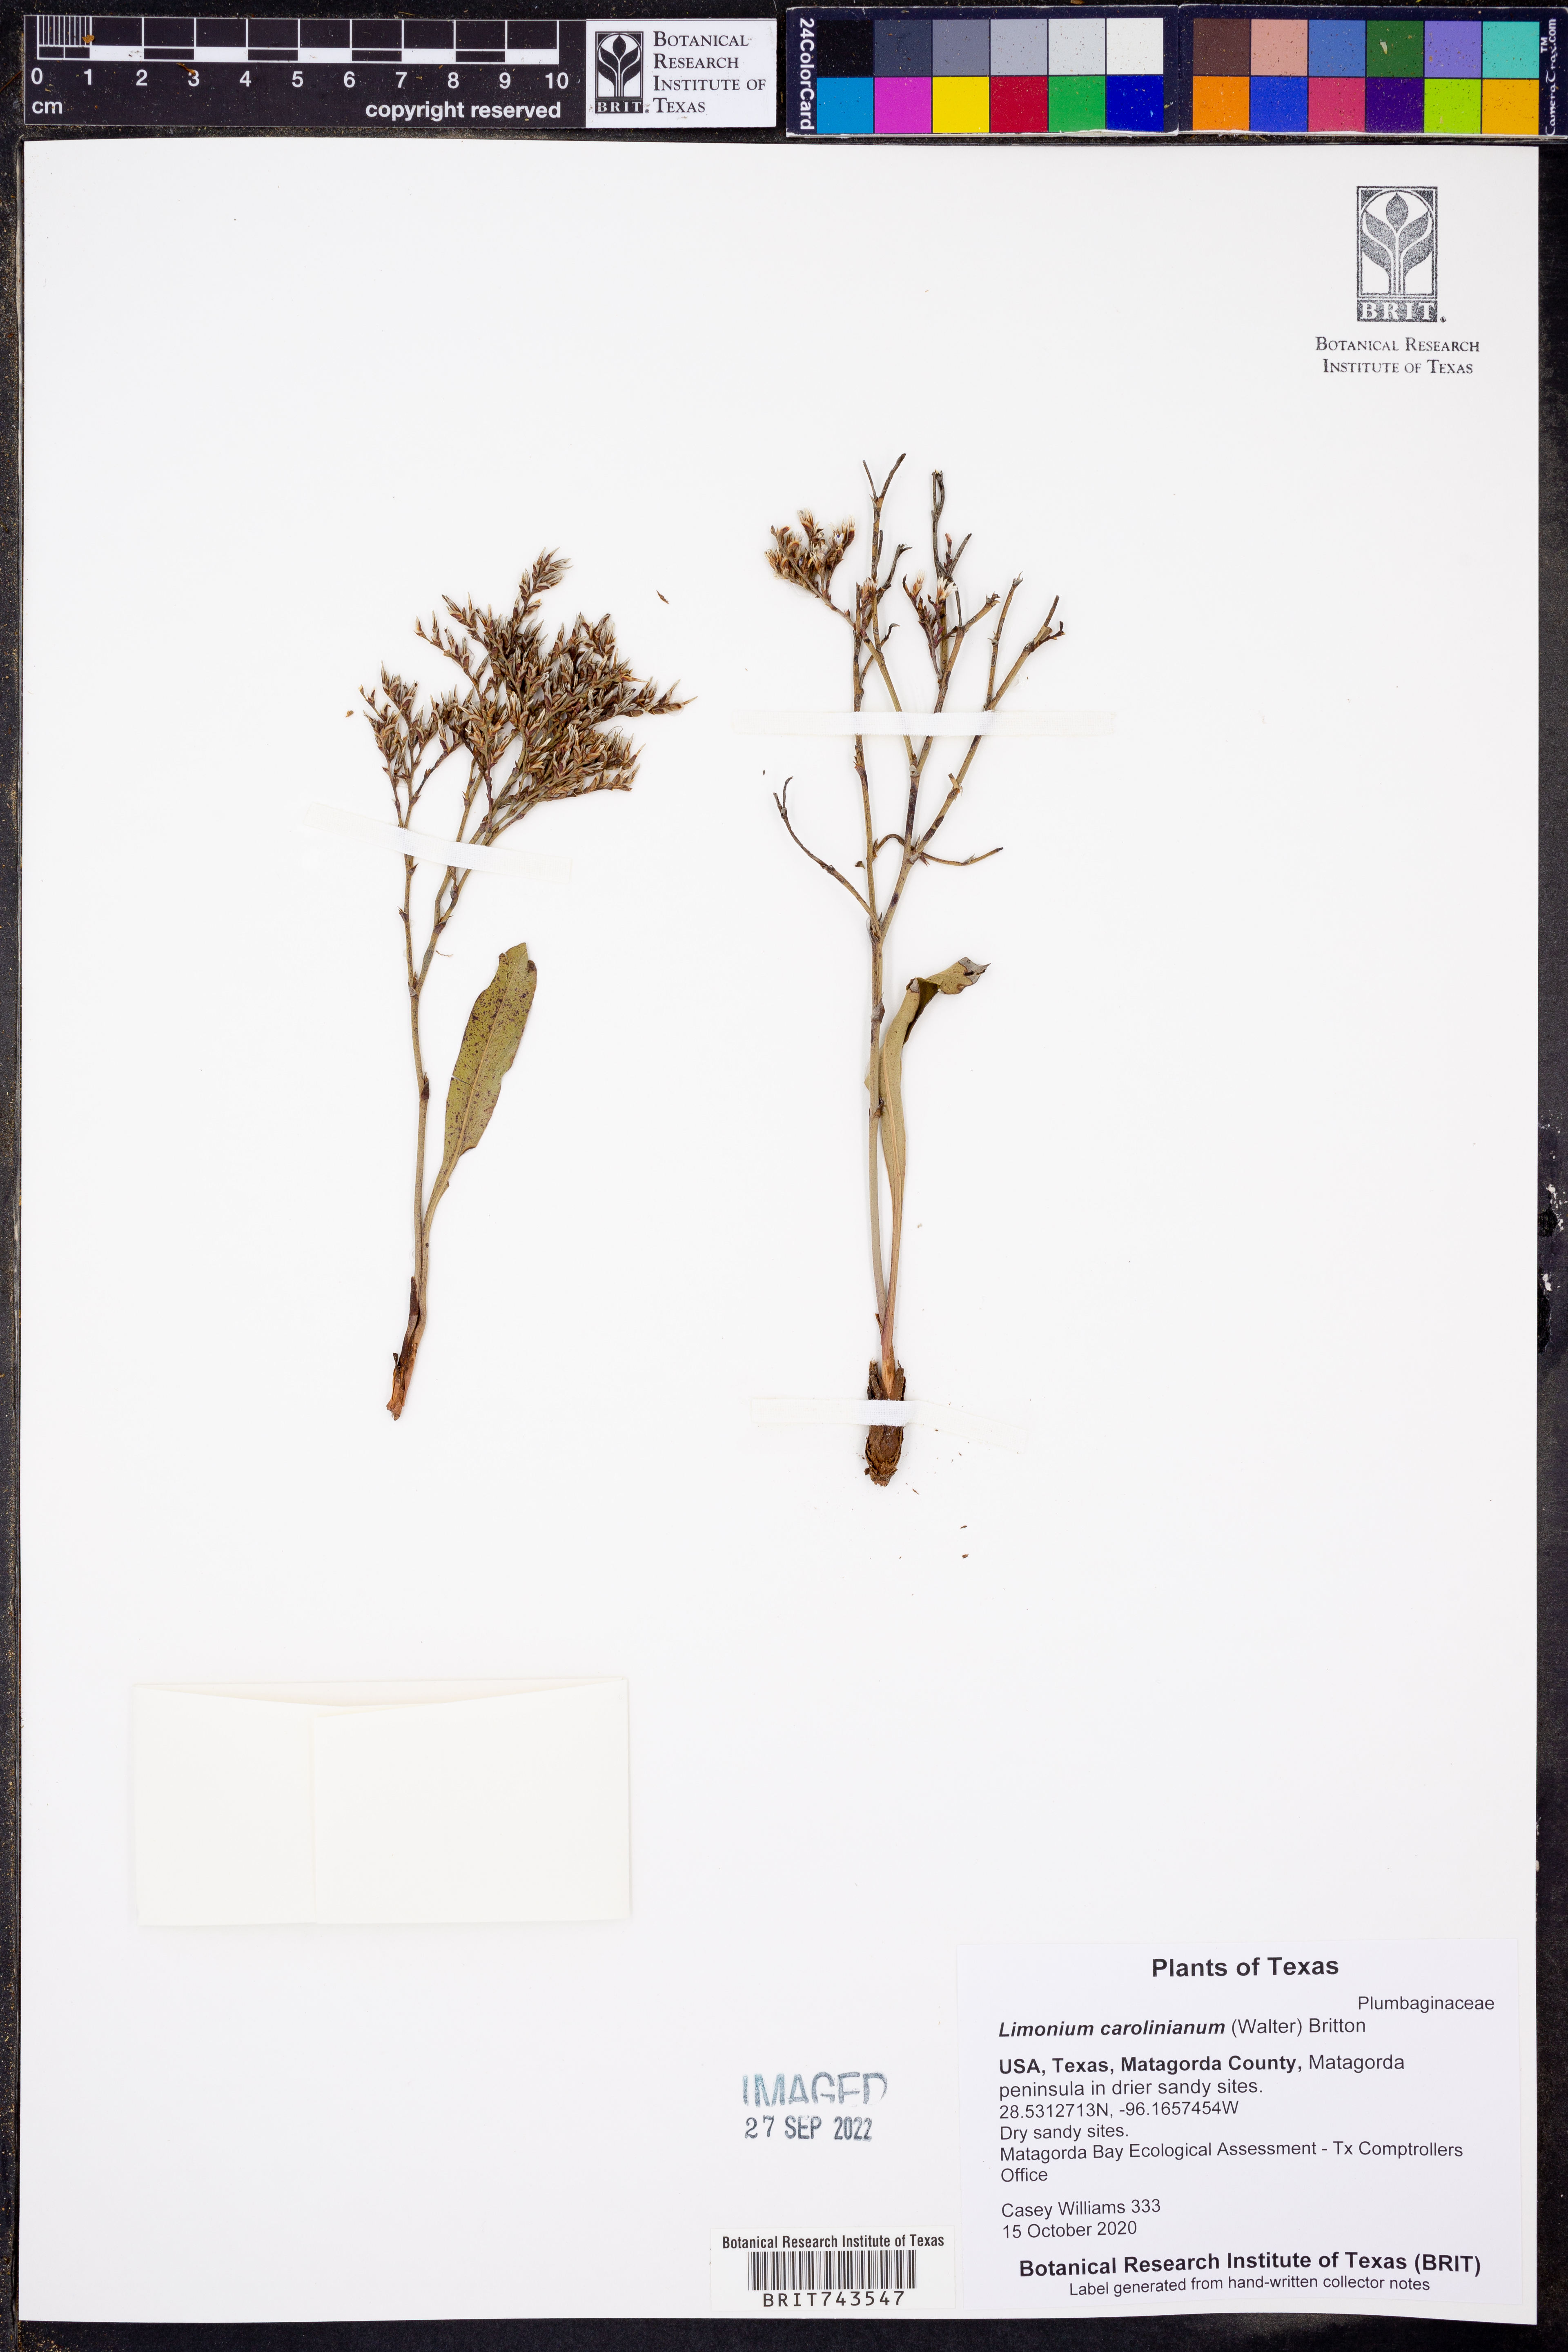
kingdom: Plantae
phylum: Tracheophyta
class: Magnoliopsida
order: Caryophyllales
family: Plumbaginaceae
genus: Limonium
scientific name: Limonium carolinianum
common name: Carolina sea lavender
